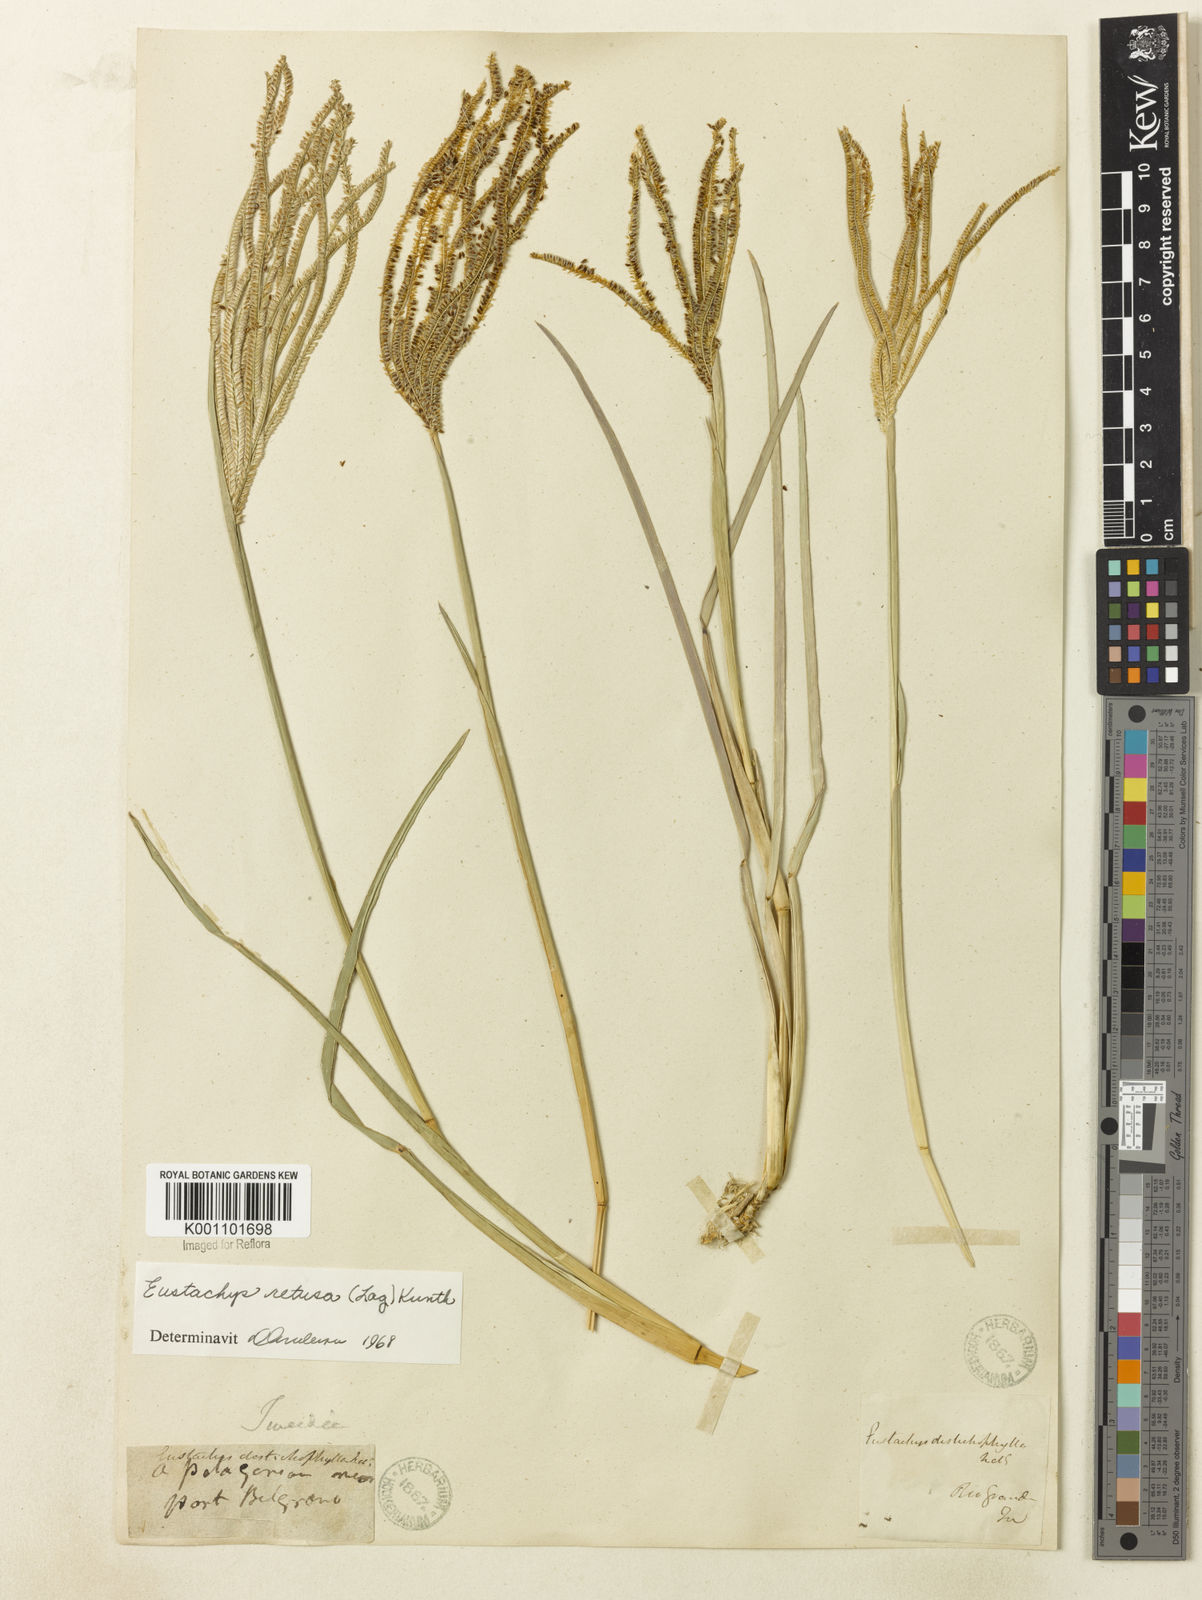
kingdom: Plantae
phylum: Tracheophyta
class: Liliopsida
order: Poales
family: Poaceae
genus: Eustachys
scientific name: Eustachys retusa
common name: Argentine fingergrass
